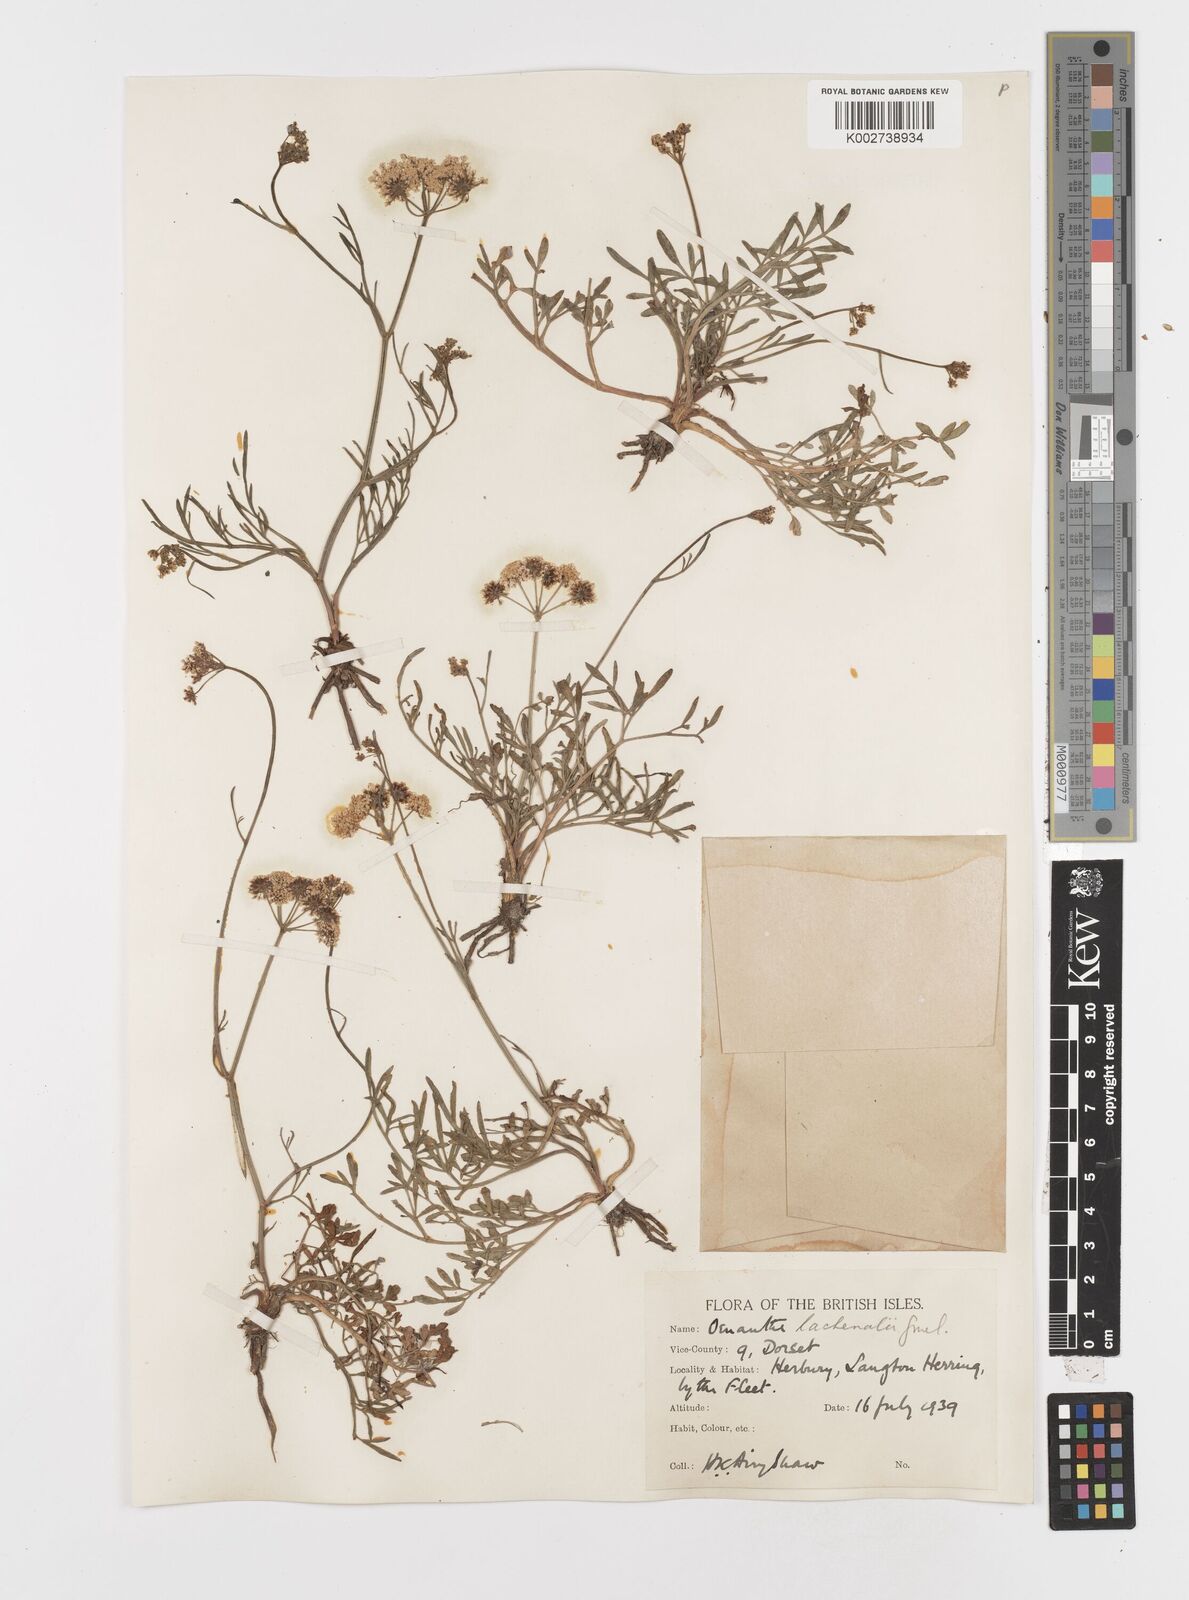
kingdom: Plantae
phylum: Tracheophyta
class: Magnoliopsida
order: Apiales
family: Apiaceae
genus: Oenanthe
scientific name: Oenanthe lachenalii
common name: Parsley water-dropwort
